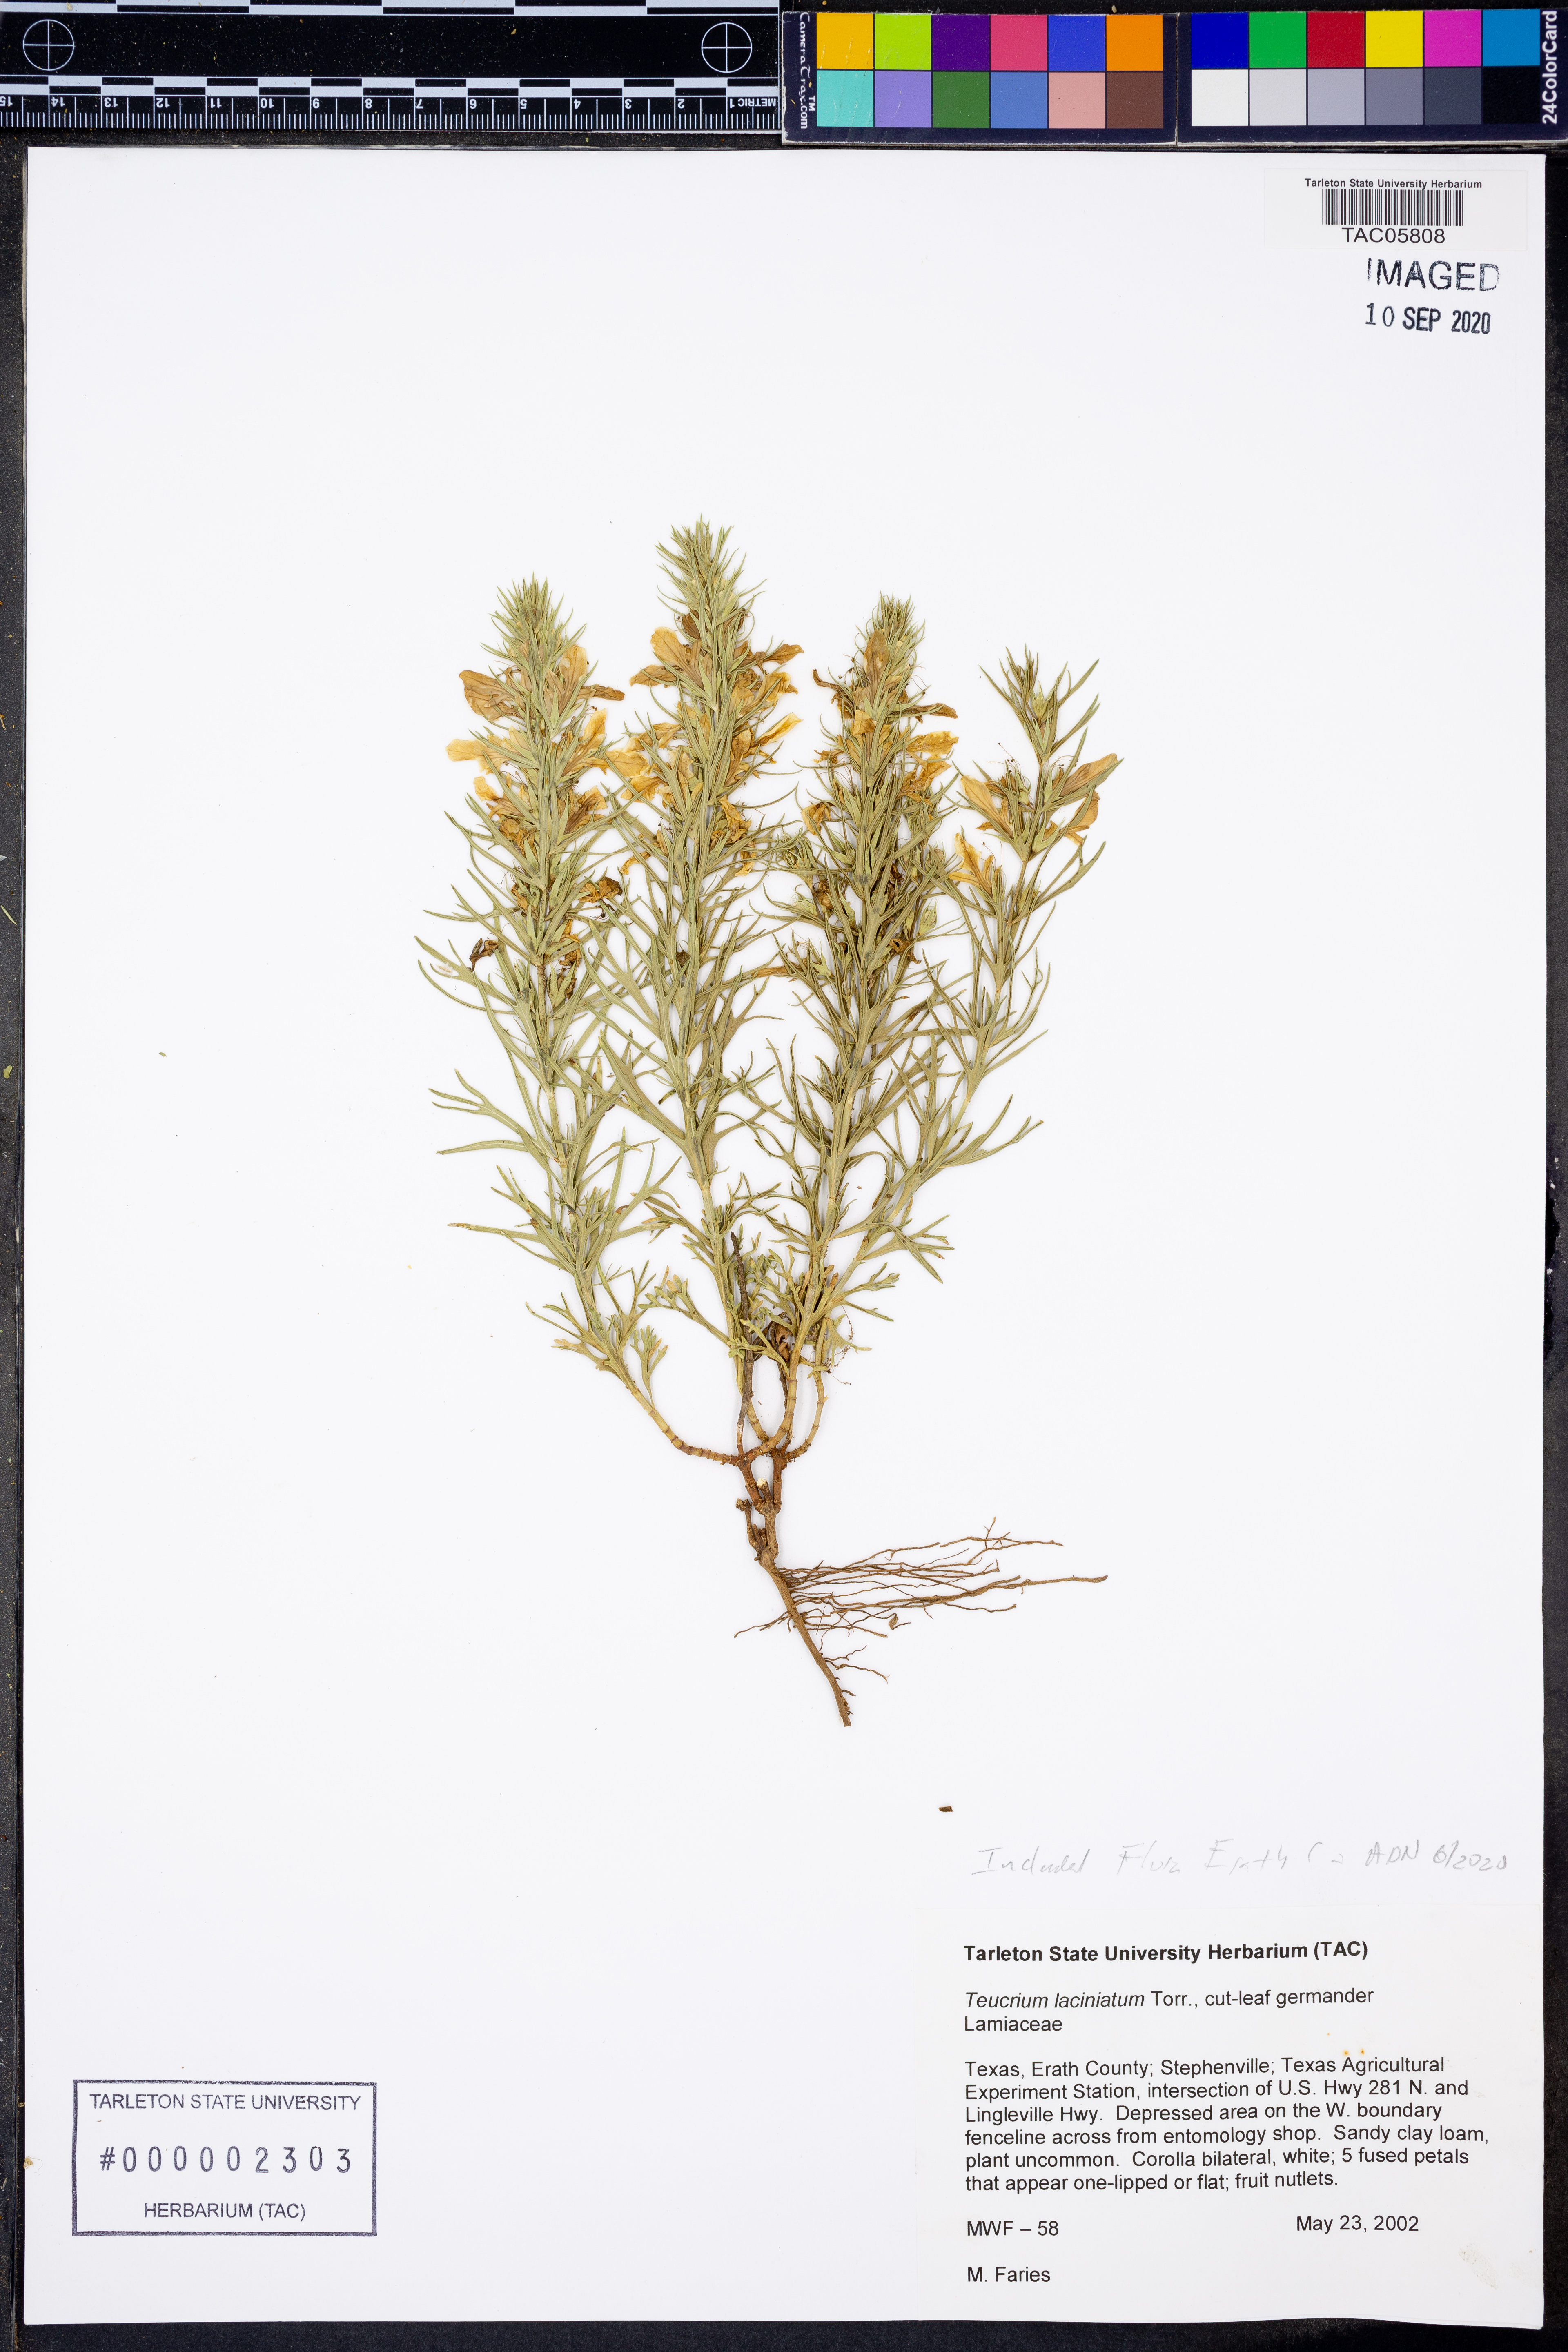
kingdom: Plantae
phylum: Tracheophyta
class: Magnoliopsida
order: Lamiales
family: Lamiaceae
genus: Teucrium
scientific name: Teucrium laciniatum
